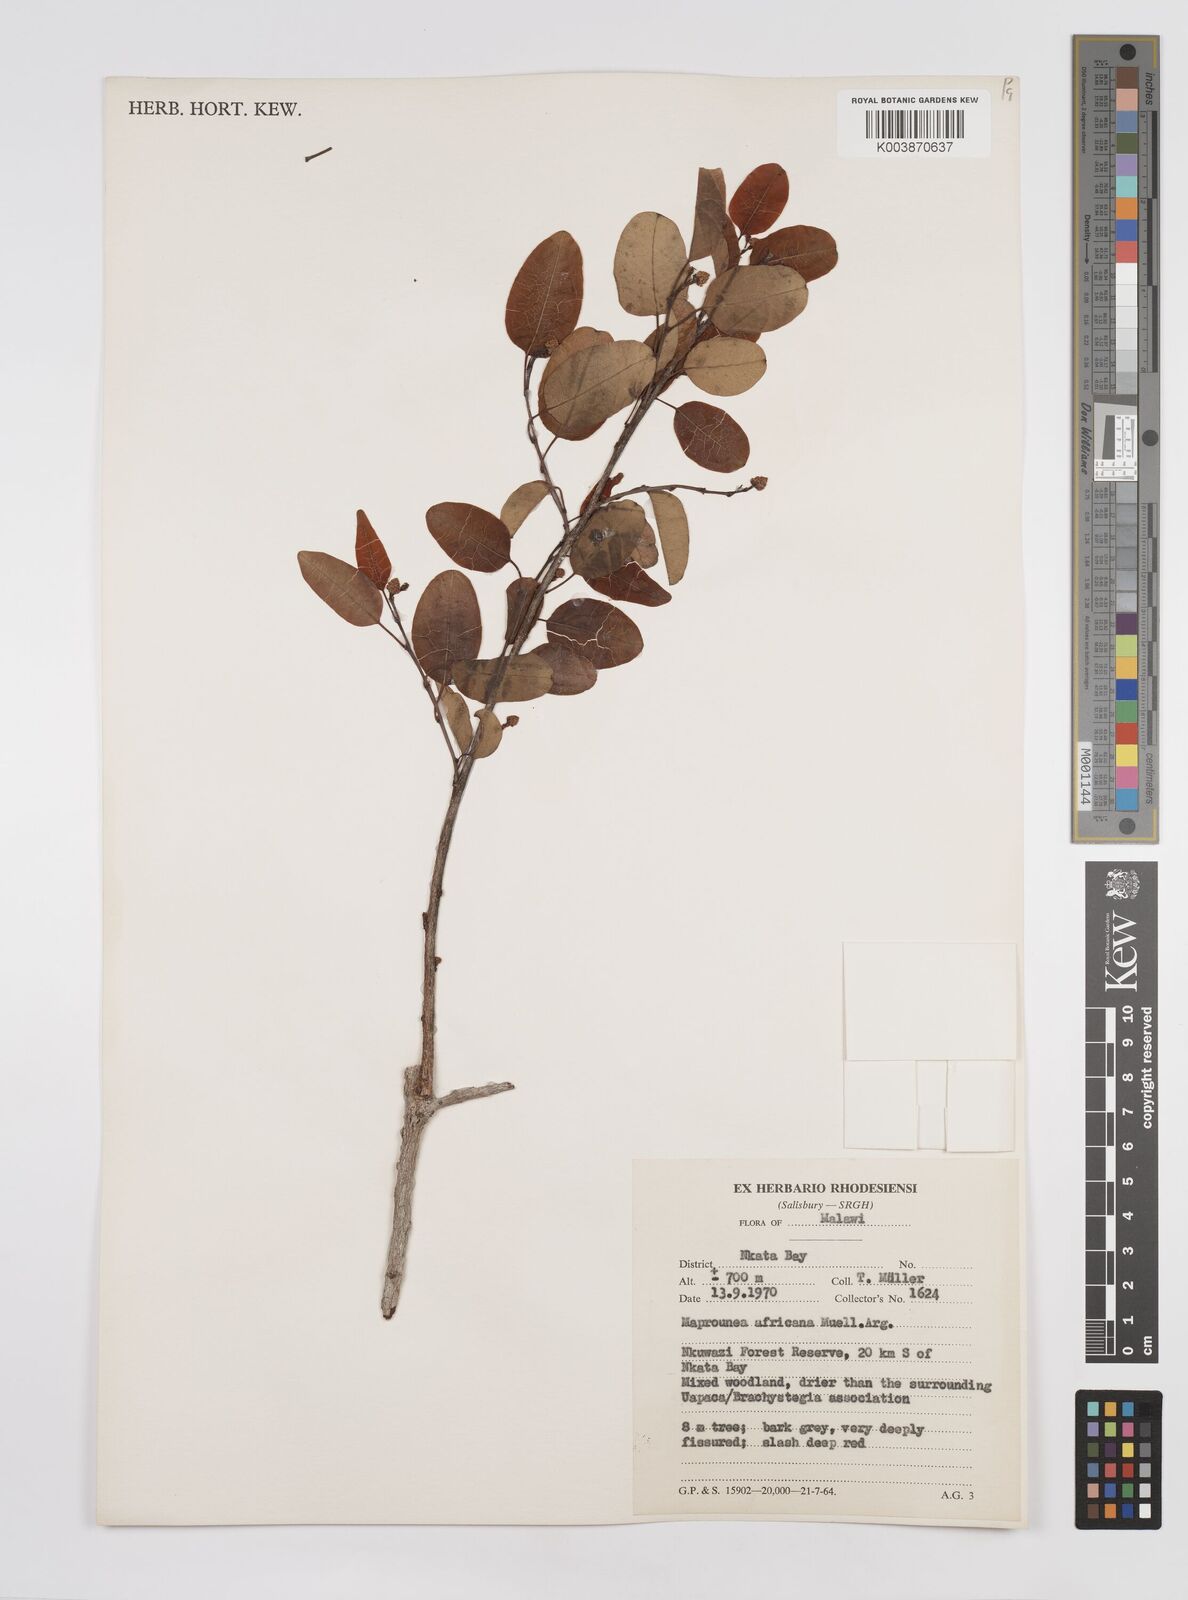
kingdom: Plantae
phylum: Tracheophyta
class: Magnoliopsida
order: Malpighiales
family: Euphorbiaceae
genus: Maprounea
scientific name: Maprounea africana
